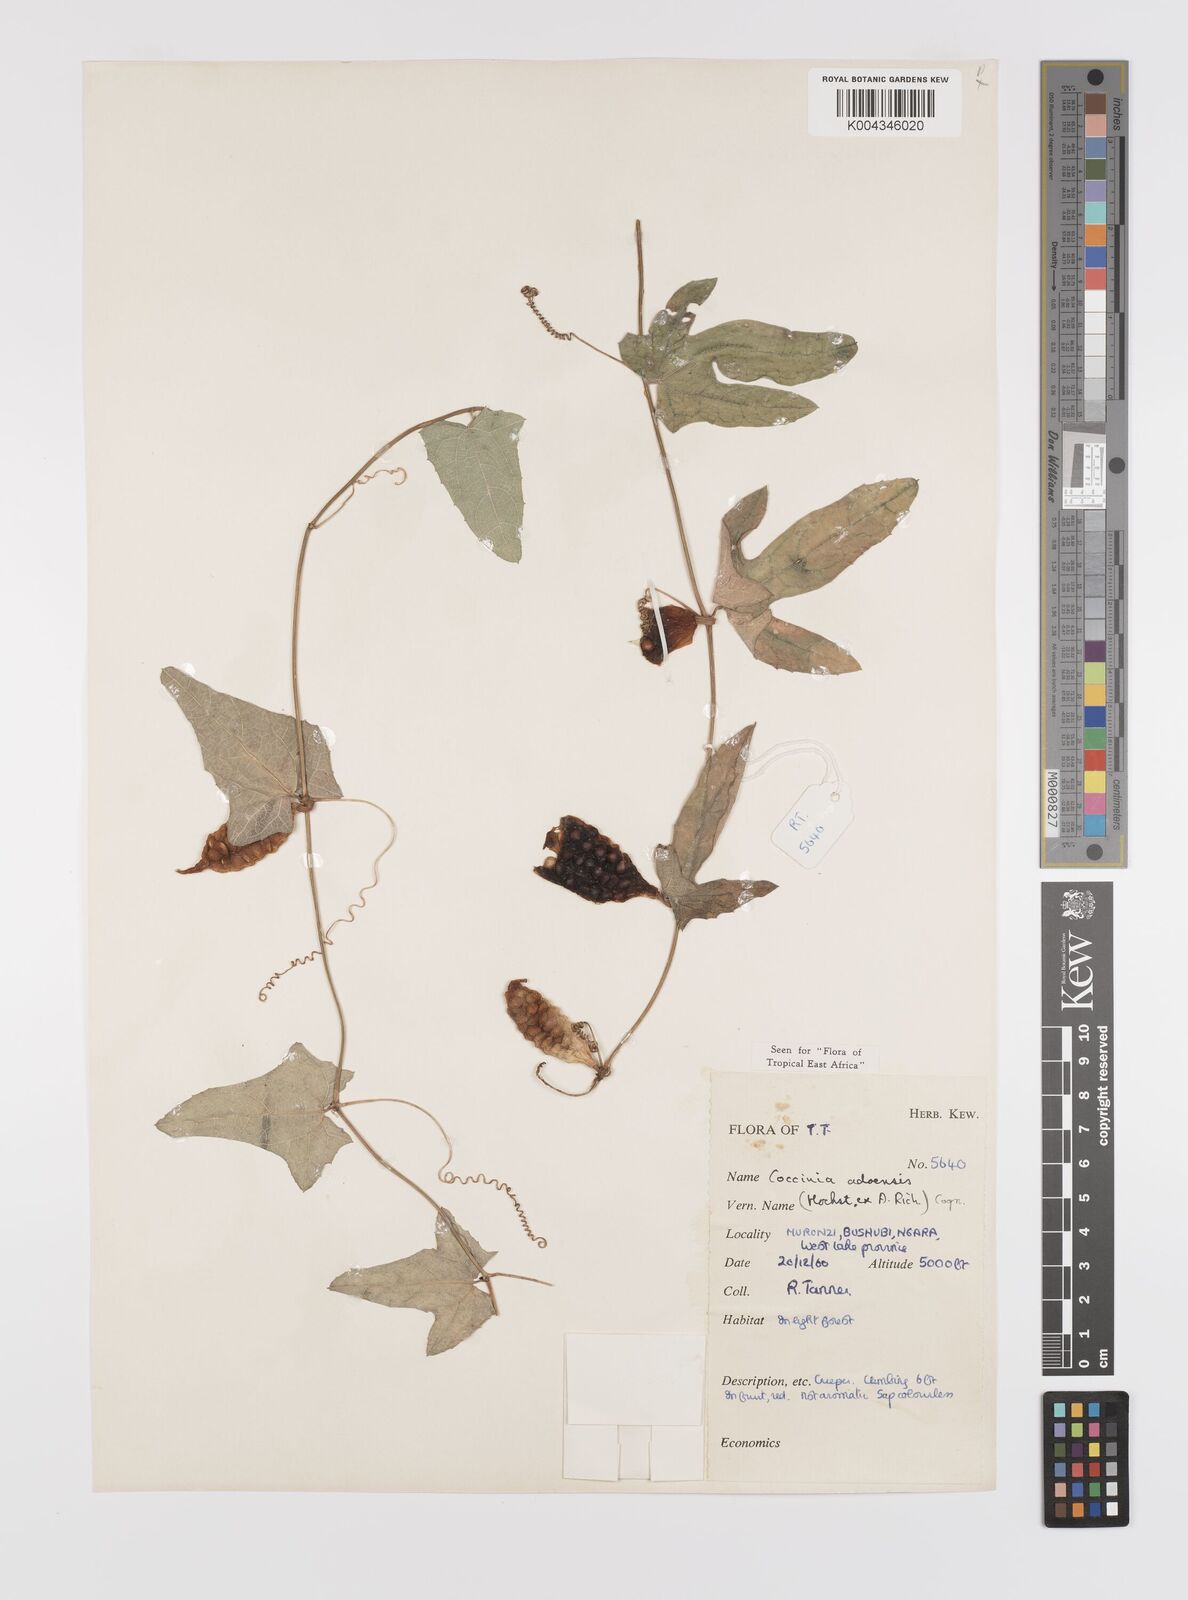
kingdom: Plantae
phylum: Tracheophyta
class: Magnoliopsida
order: Cucurbitales
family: Cucurbitaceae
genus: Coccinia
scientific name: Coccinia adoensis
